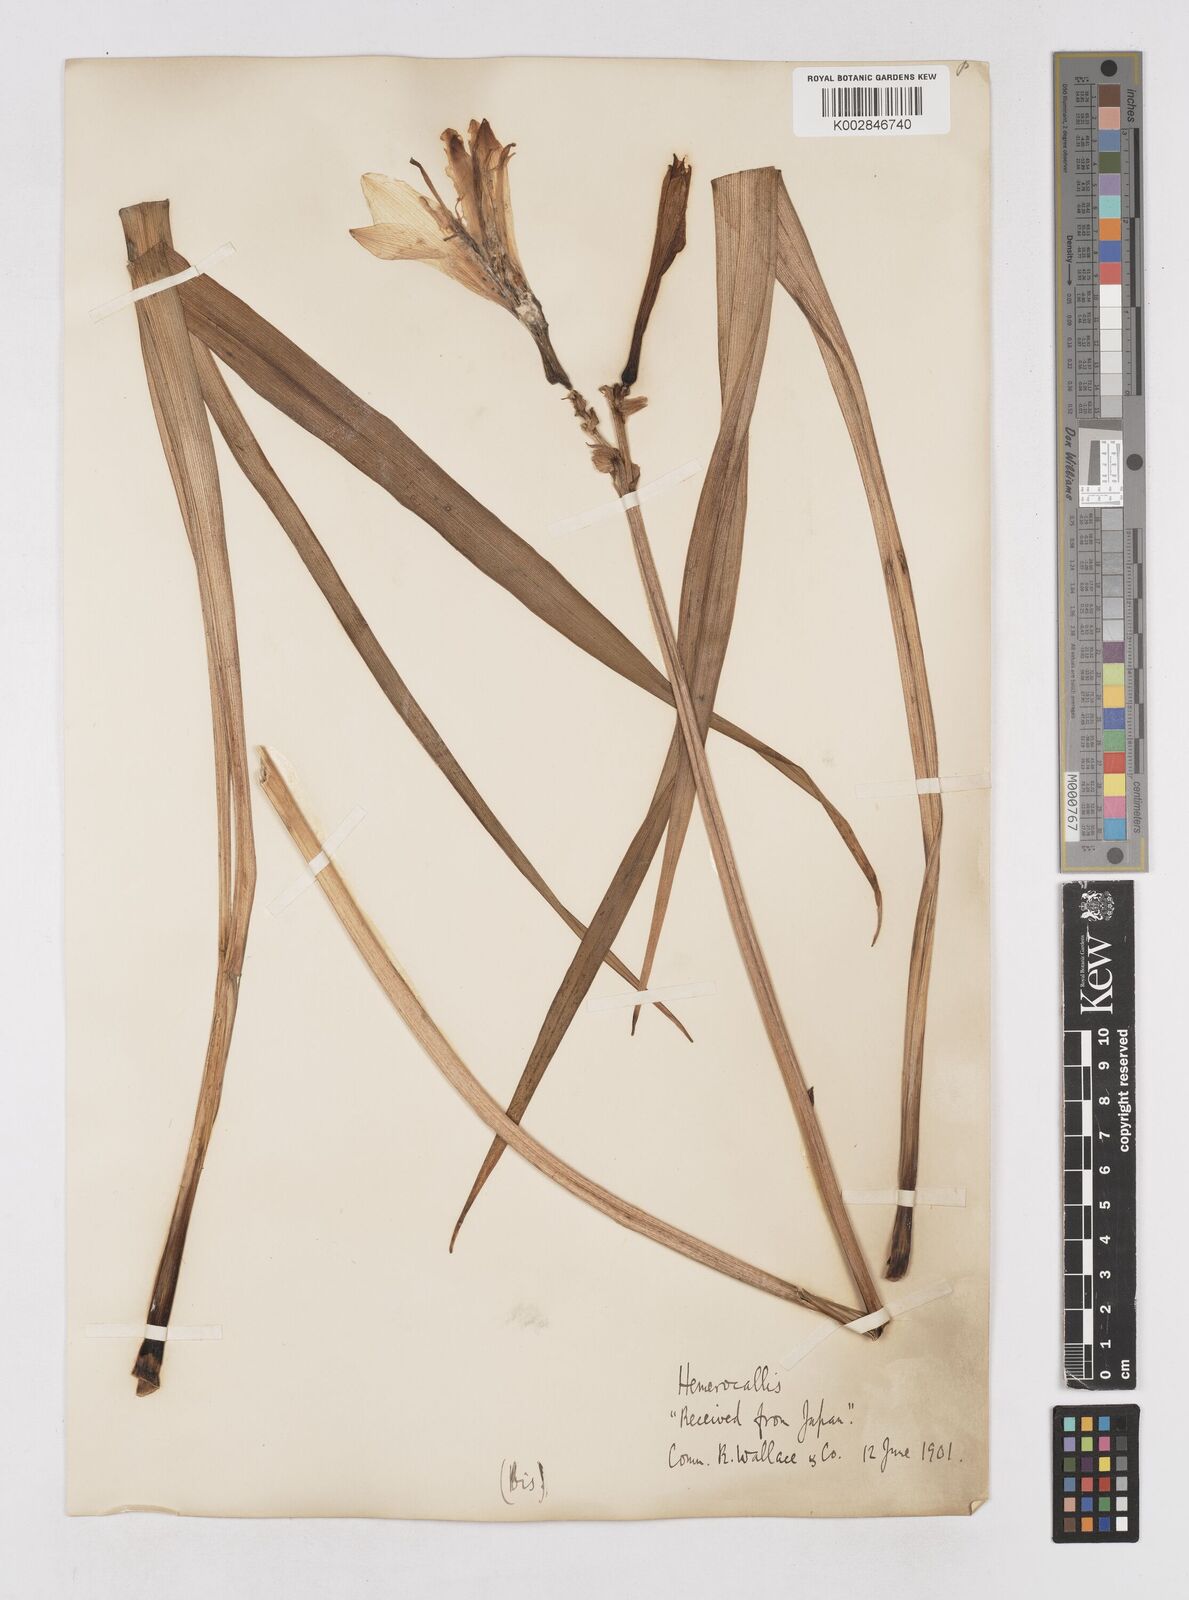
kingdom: Plantae
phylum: Tracheophyta
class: Liliopsida
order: Asparagales
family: Asphodelaceae
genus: Hemerocallis
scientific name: Hemerocallis
